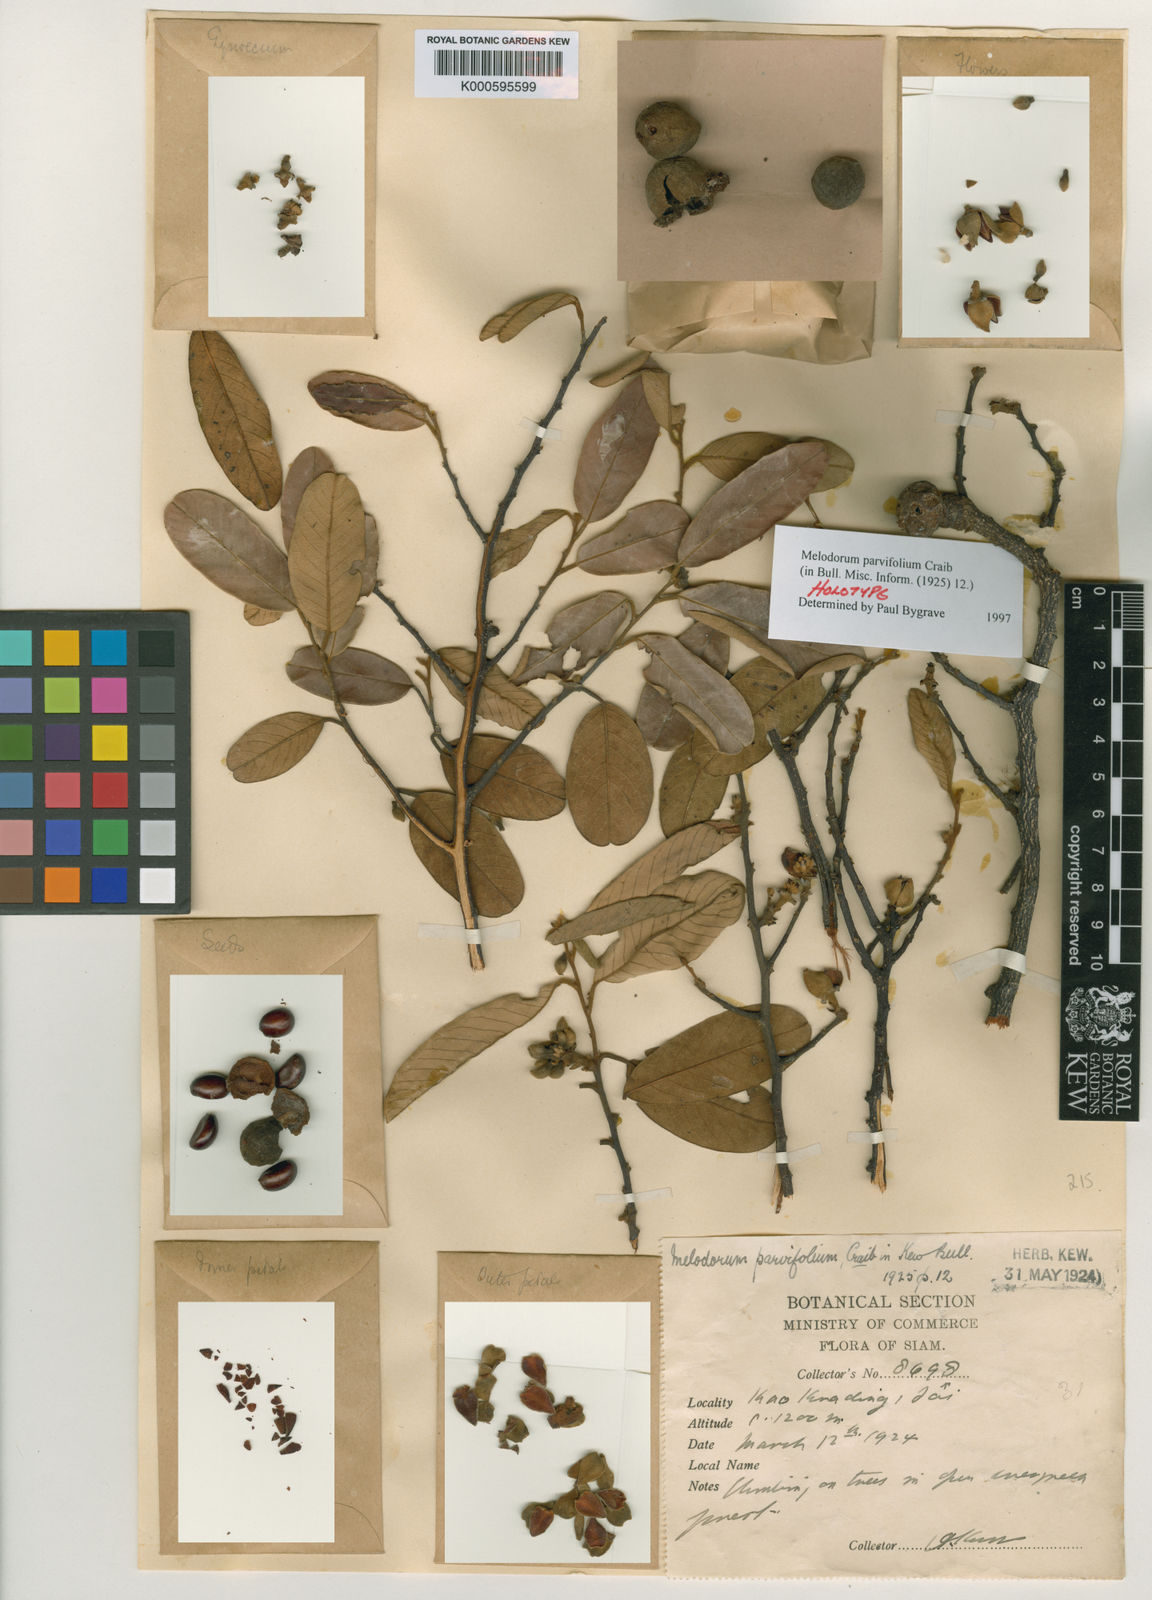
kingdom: Plantae
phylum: Tracheophyta
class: Magnoliopsida
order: Magnoliales
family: Annonaceae
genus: Fissistigma
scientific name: Fissistigma
